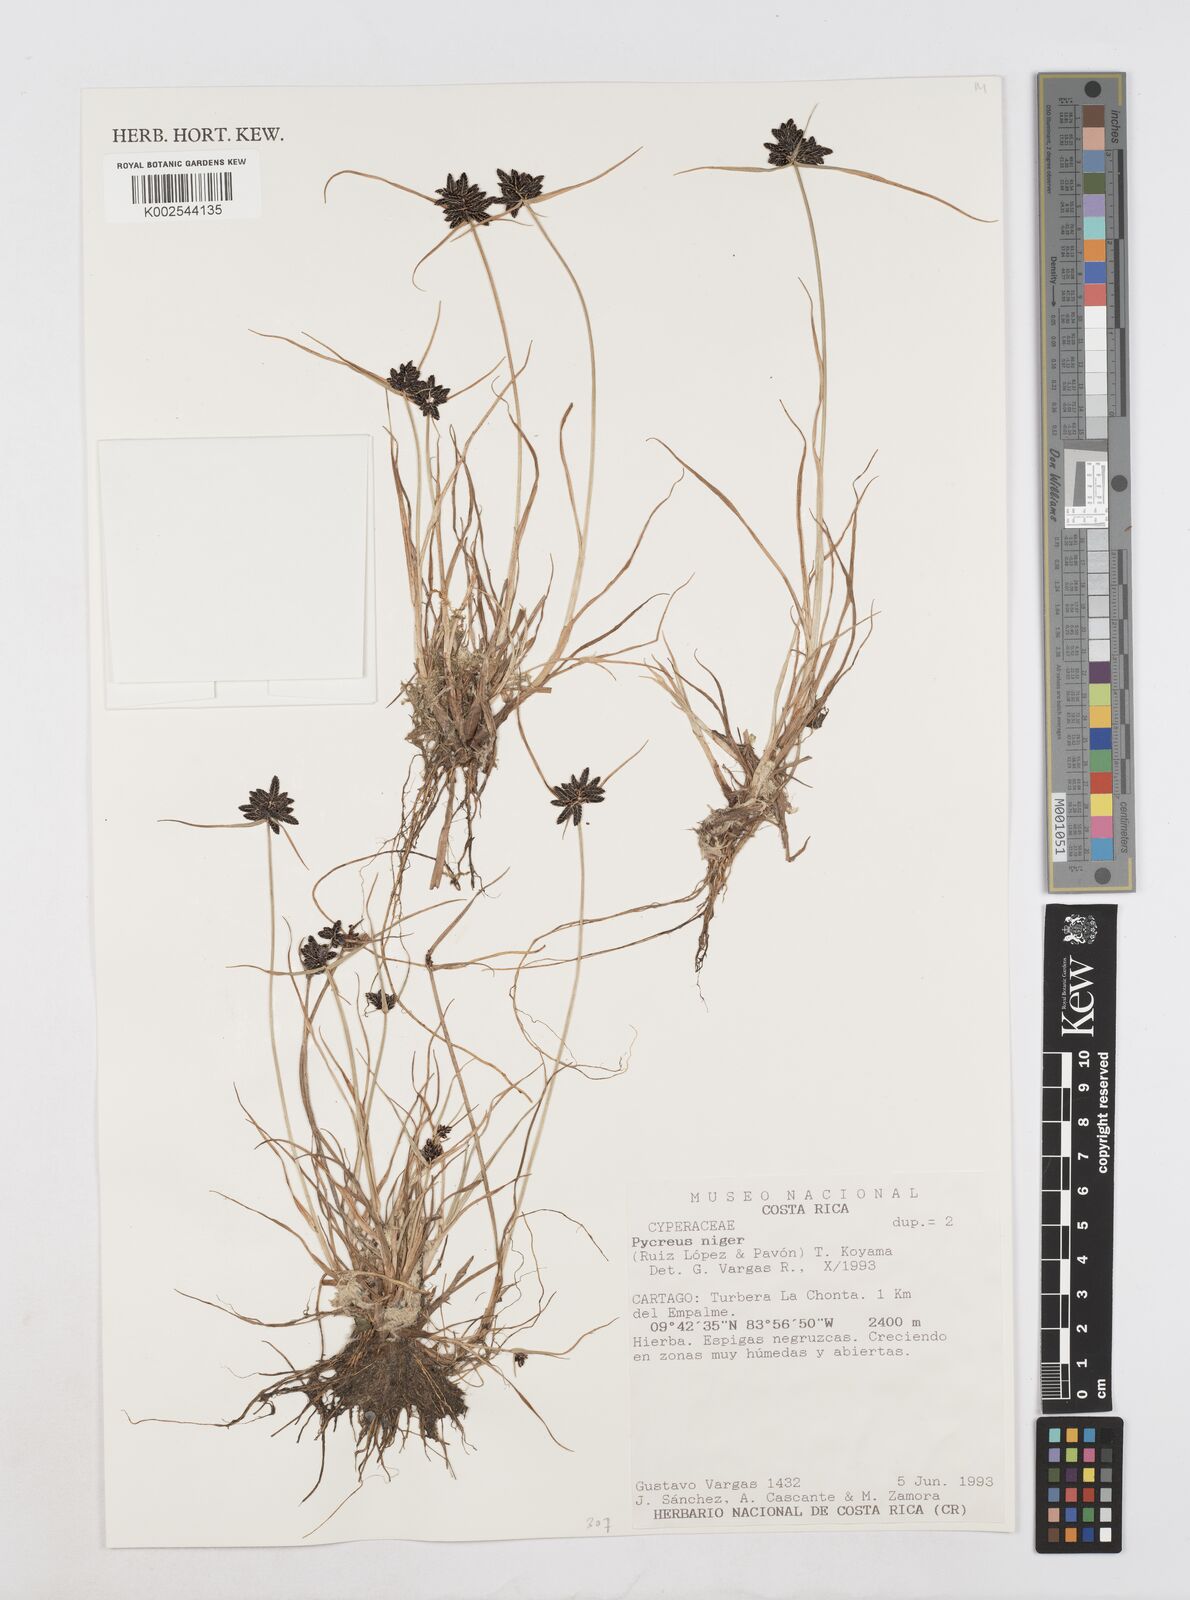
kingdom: Plantae
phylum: Tracheophyta
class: Liliopsida
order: Poales
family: Cyperaceae
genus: Cyperus
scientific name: Cyperus melanostachyus
